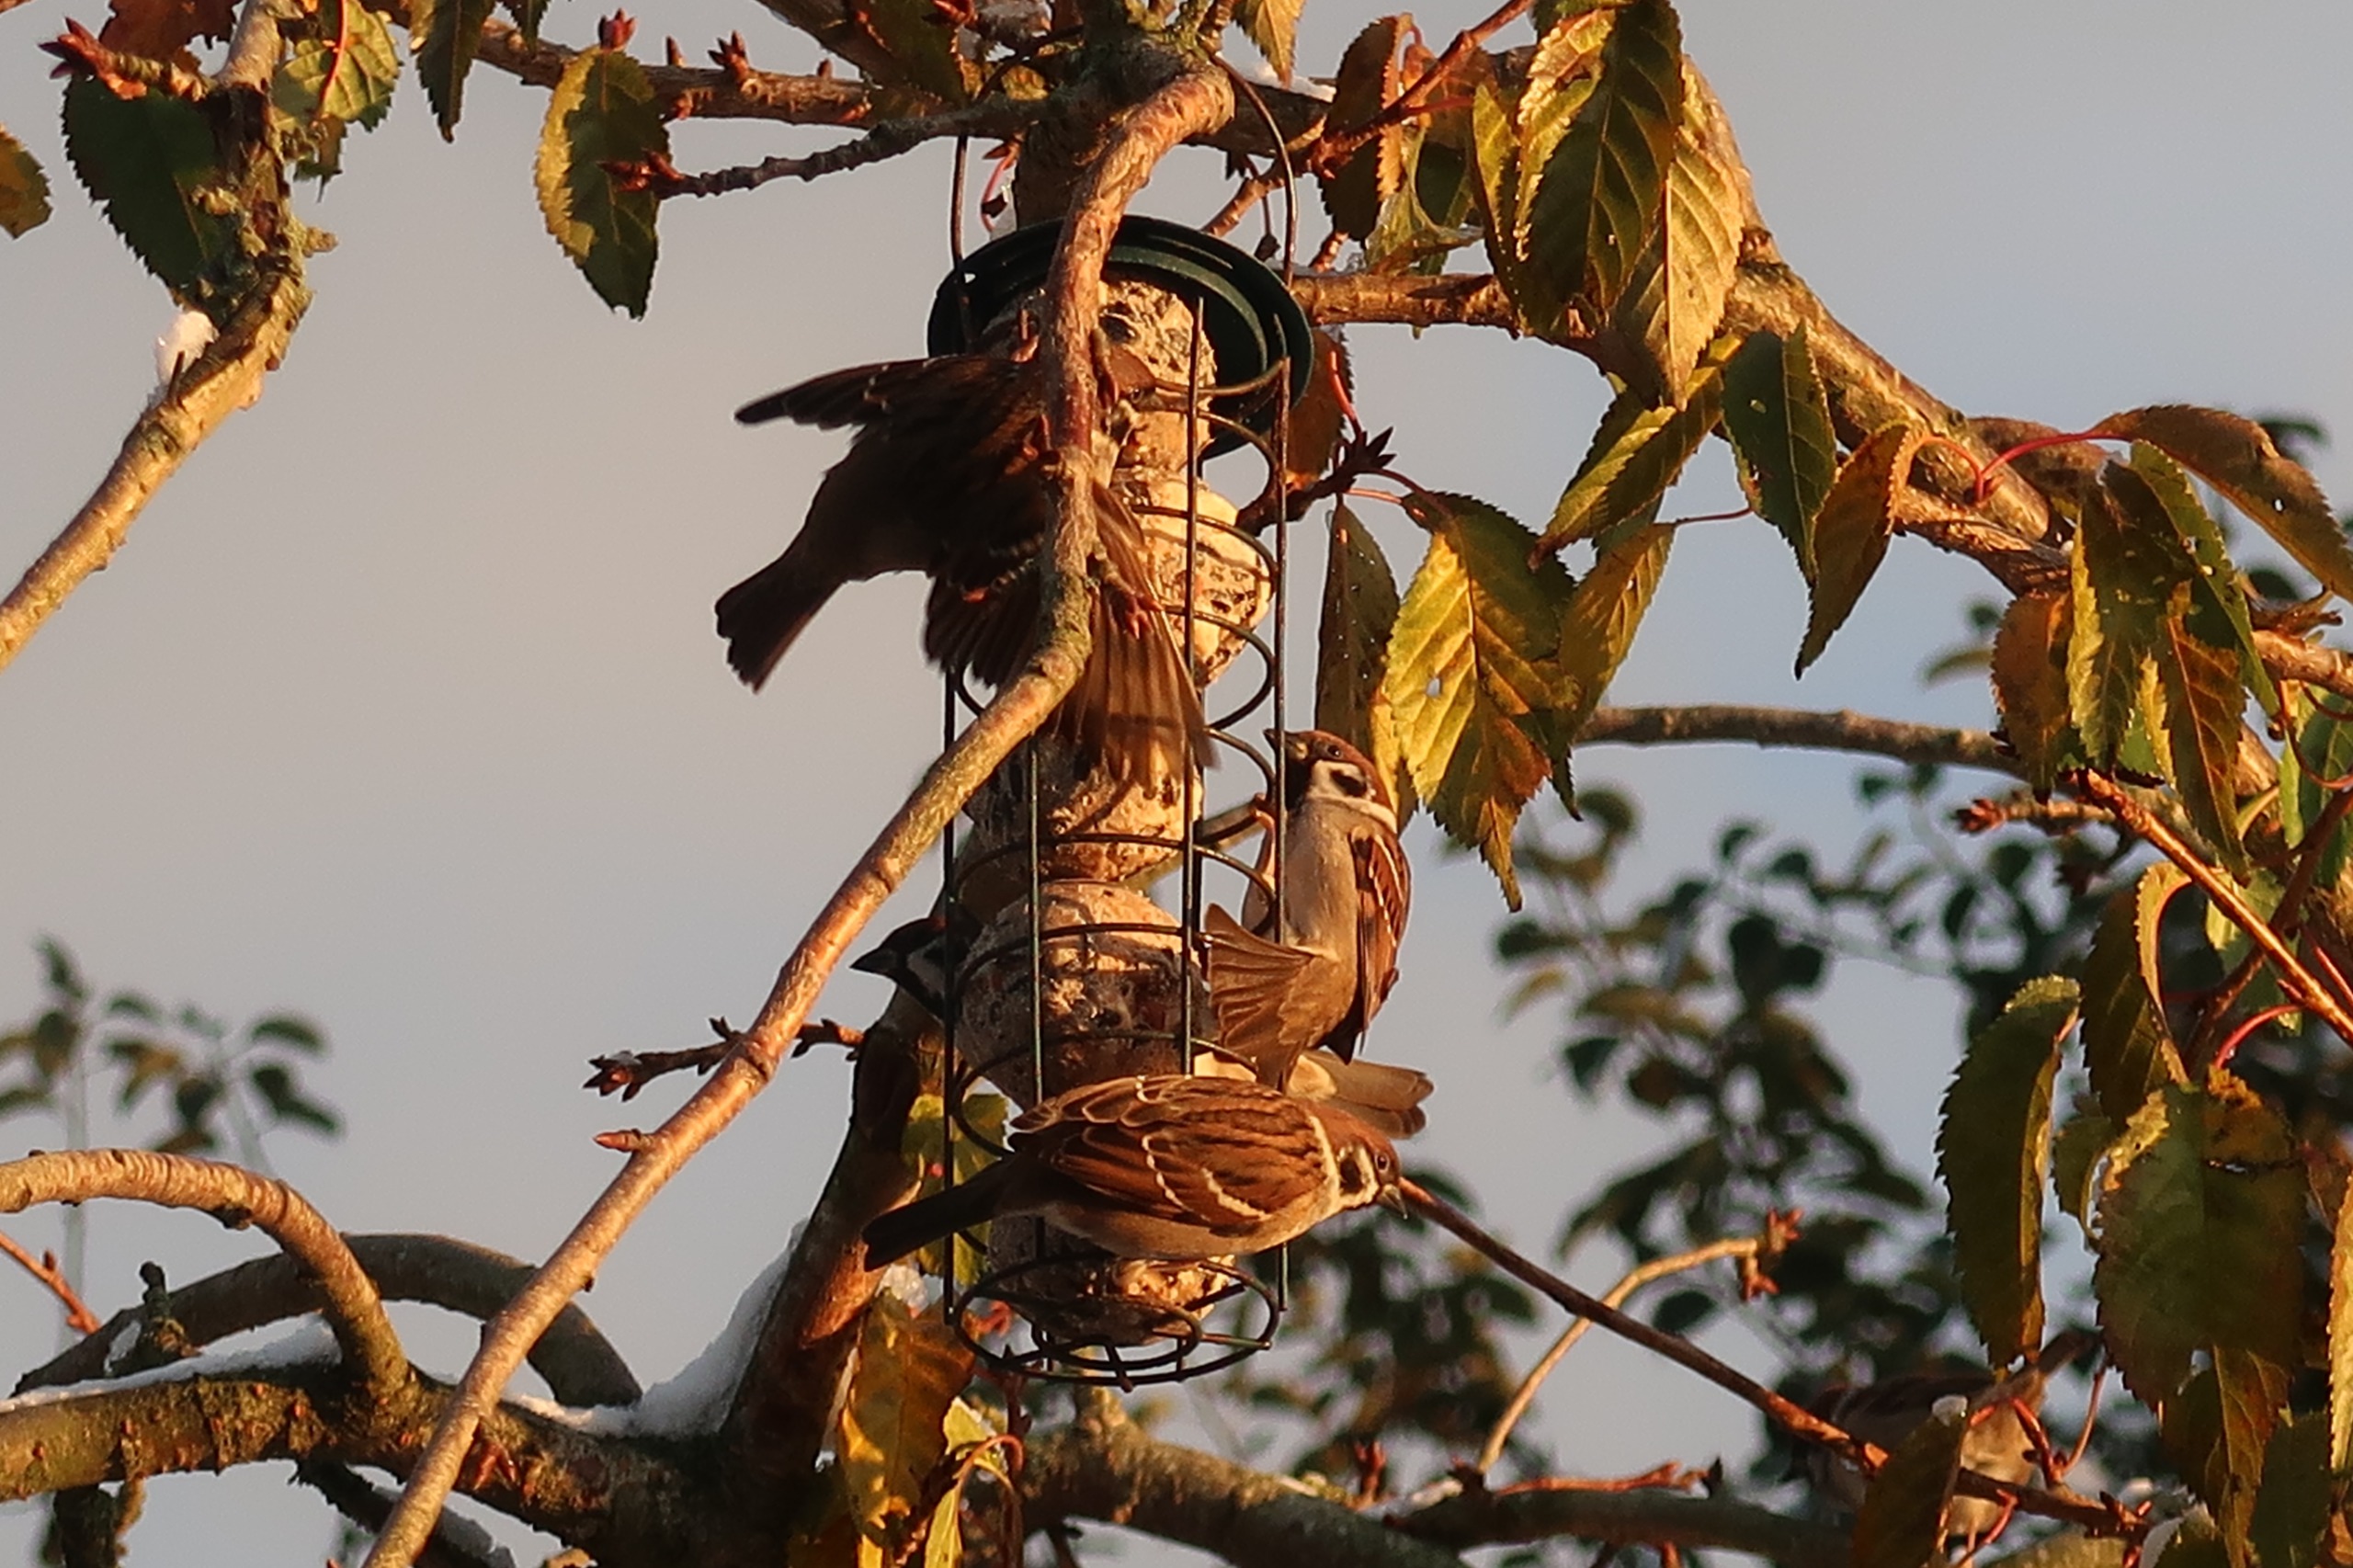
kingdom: Animalia
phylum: Chordata
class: Aves
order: Passeriformes
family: Passeridae
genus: Passer
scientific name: Passer montanus
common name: Skovspurv
